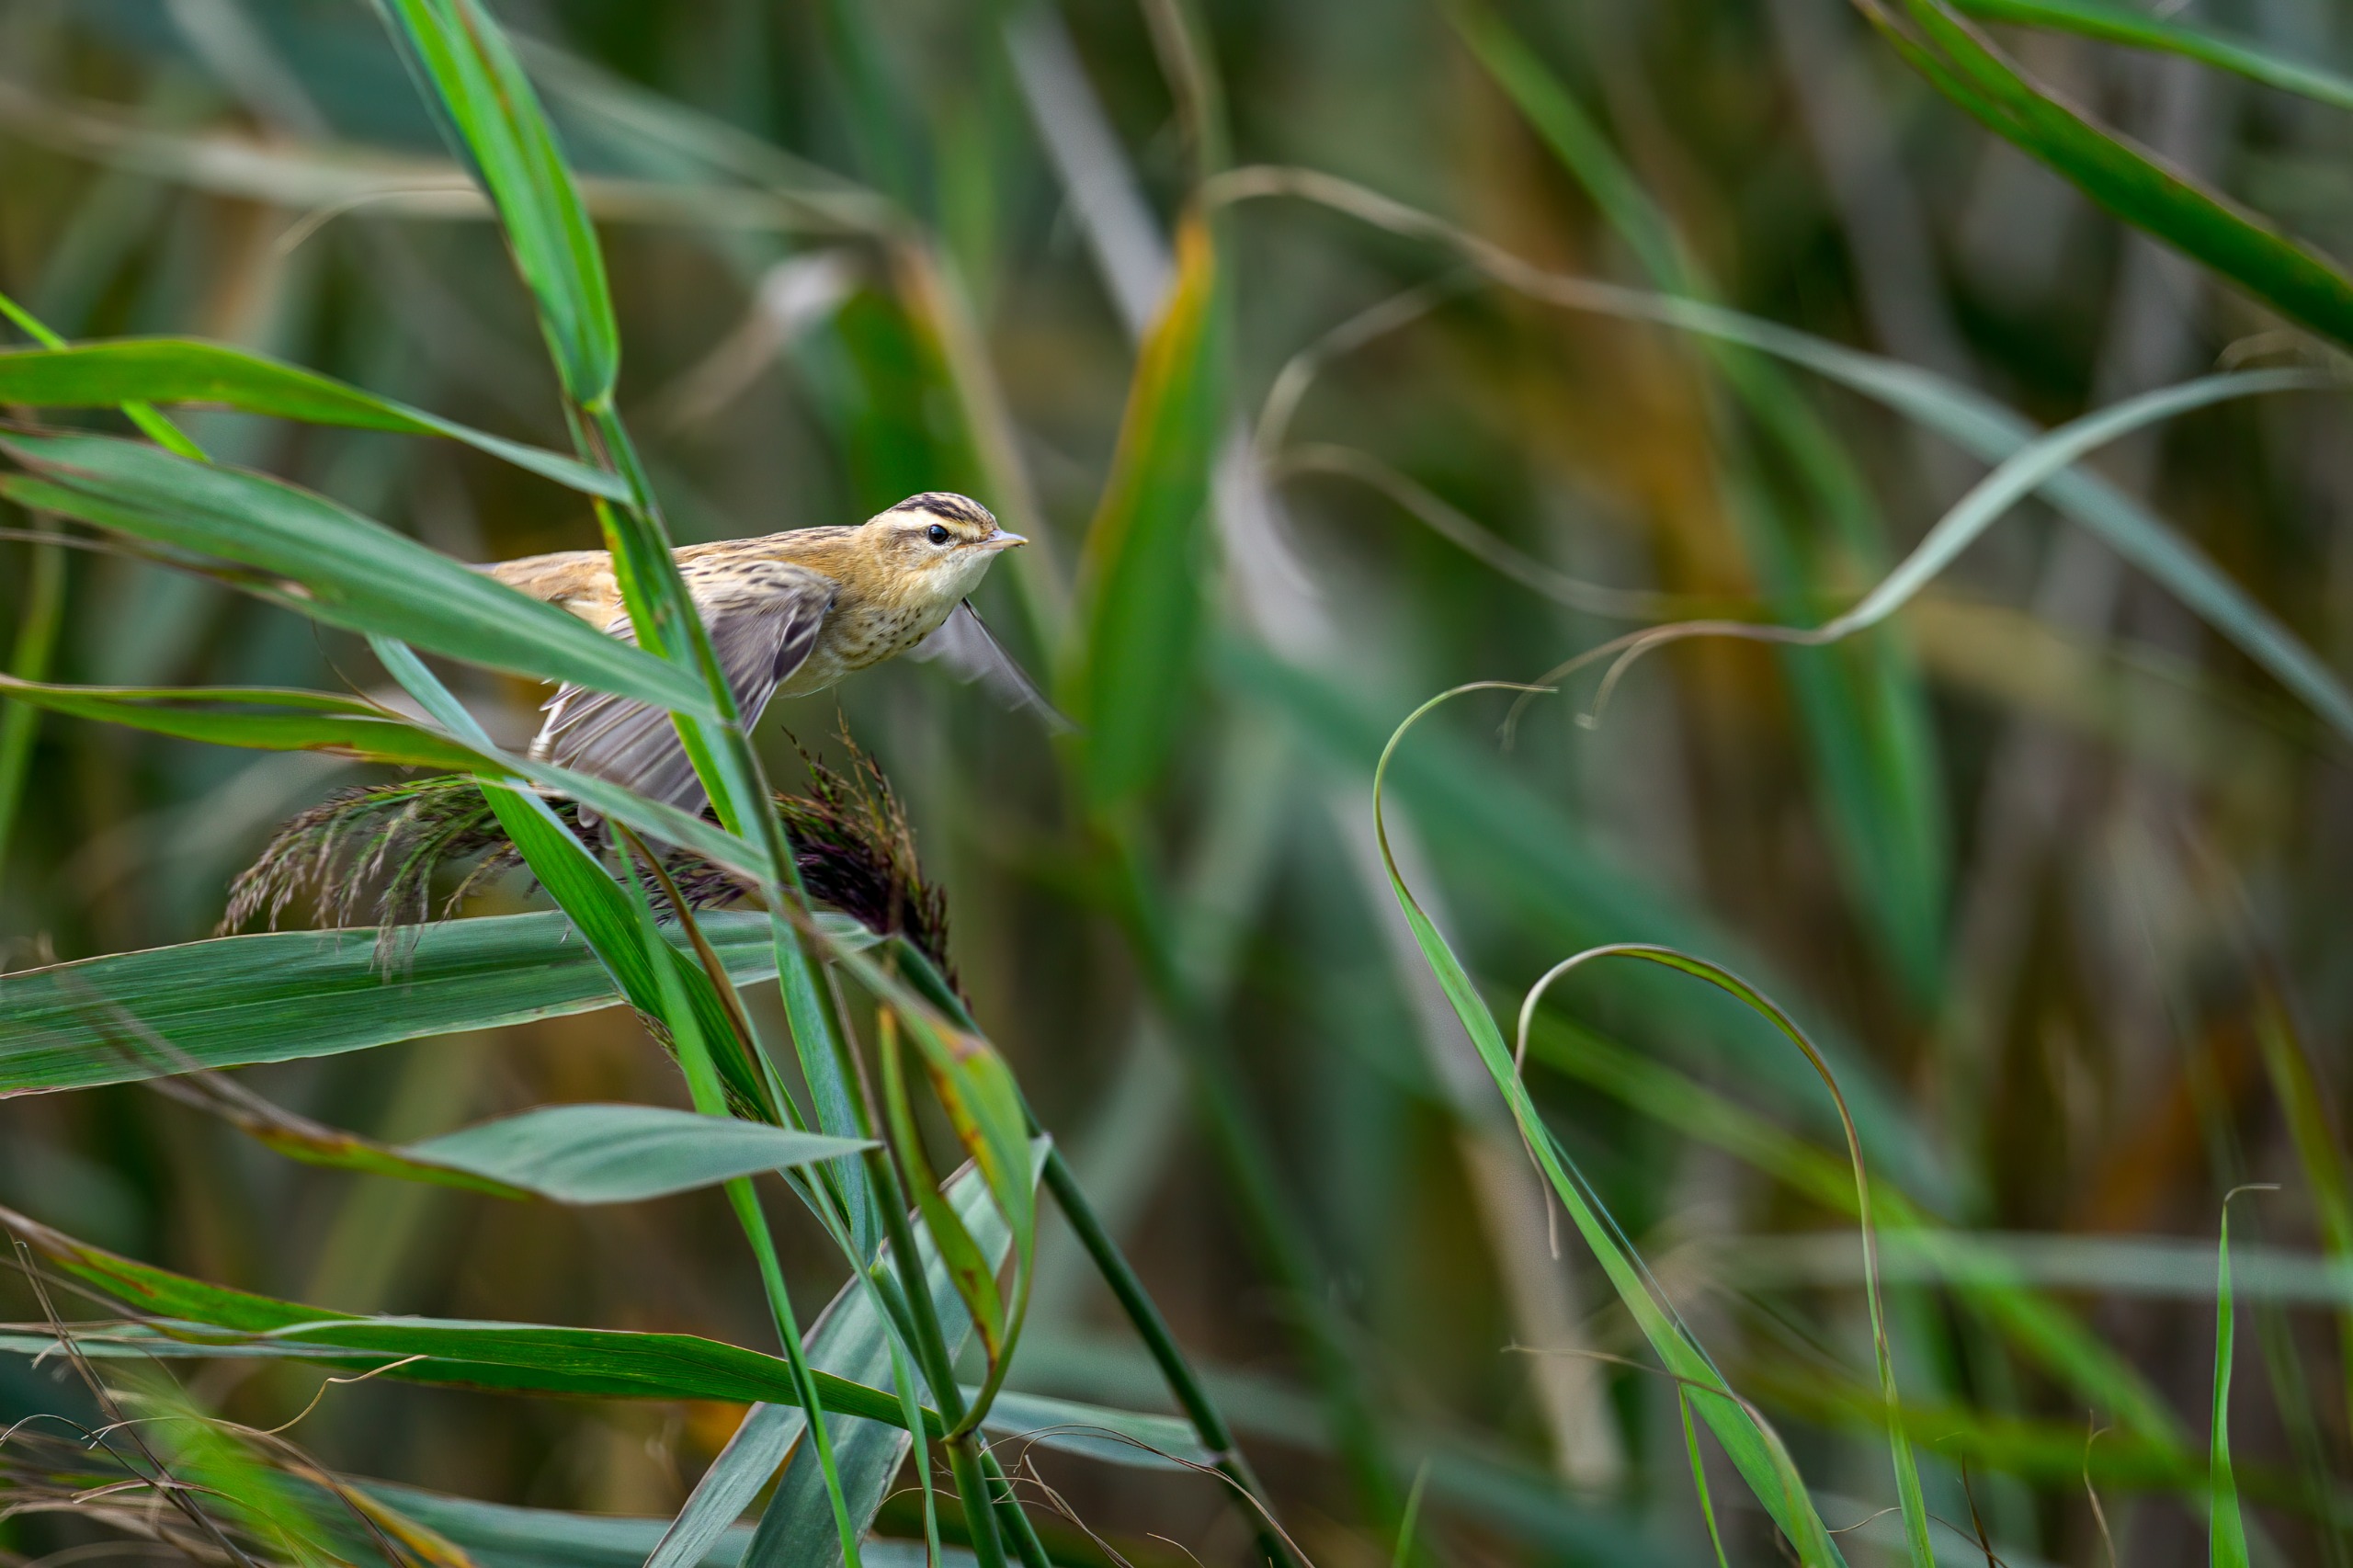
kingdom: Animalia
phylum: Chordata
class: Aves
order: Passeriformes
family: Acrocephalidae
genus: Acrocephalus
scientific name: Acrocephalus schoenobaenus
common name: Sivsanger
